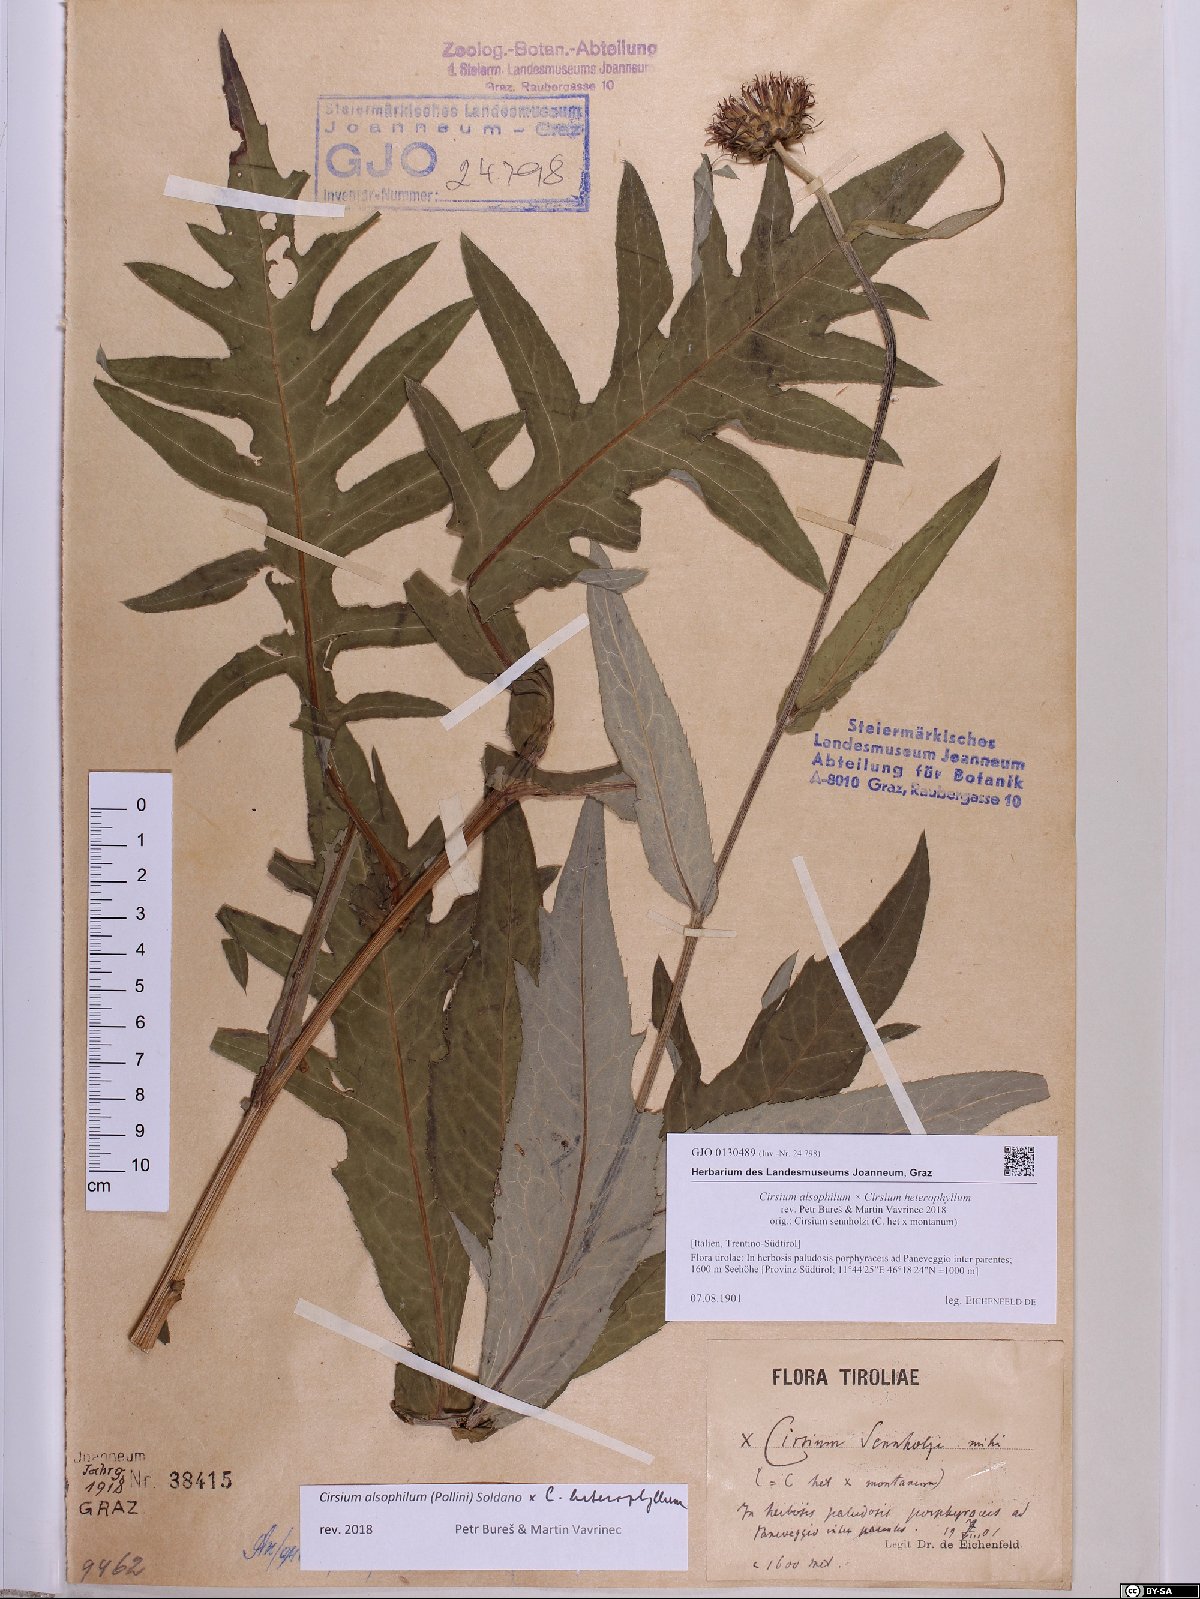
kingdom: Plantae
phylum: Tracheophyta
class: Magnoliopsida
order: Asterales
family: Asteraceae
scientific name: Asteraceae
